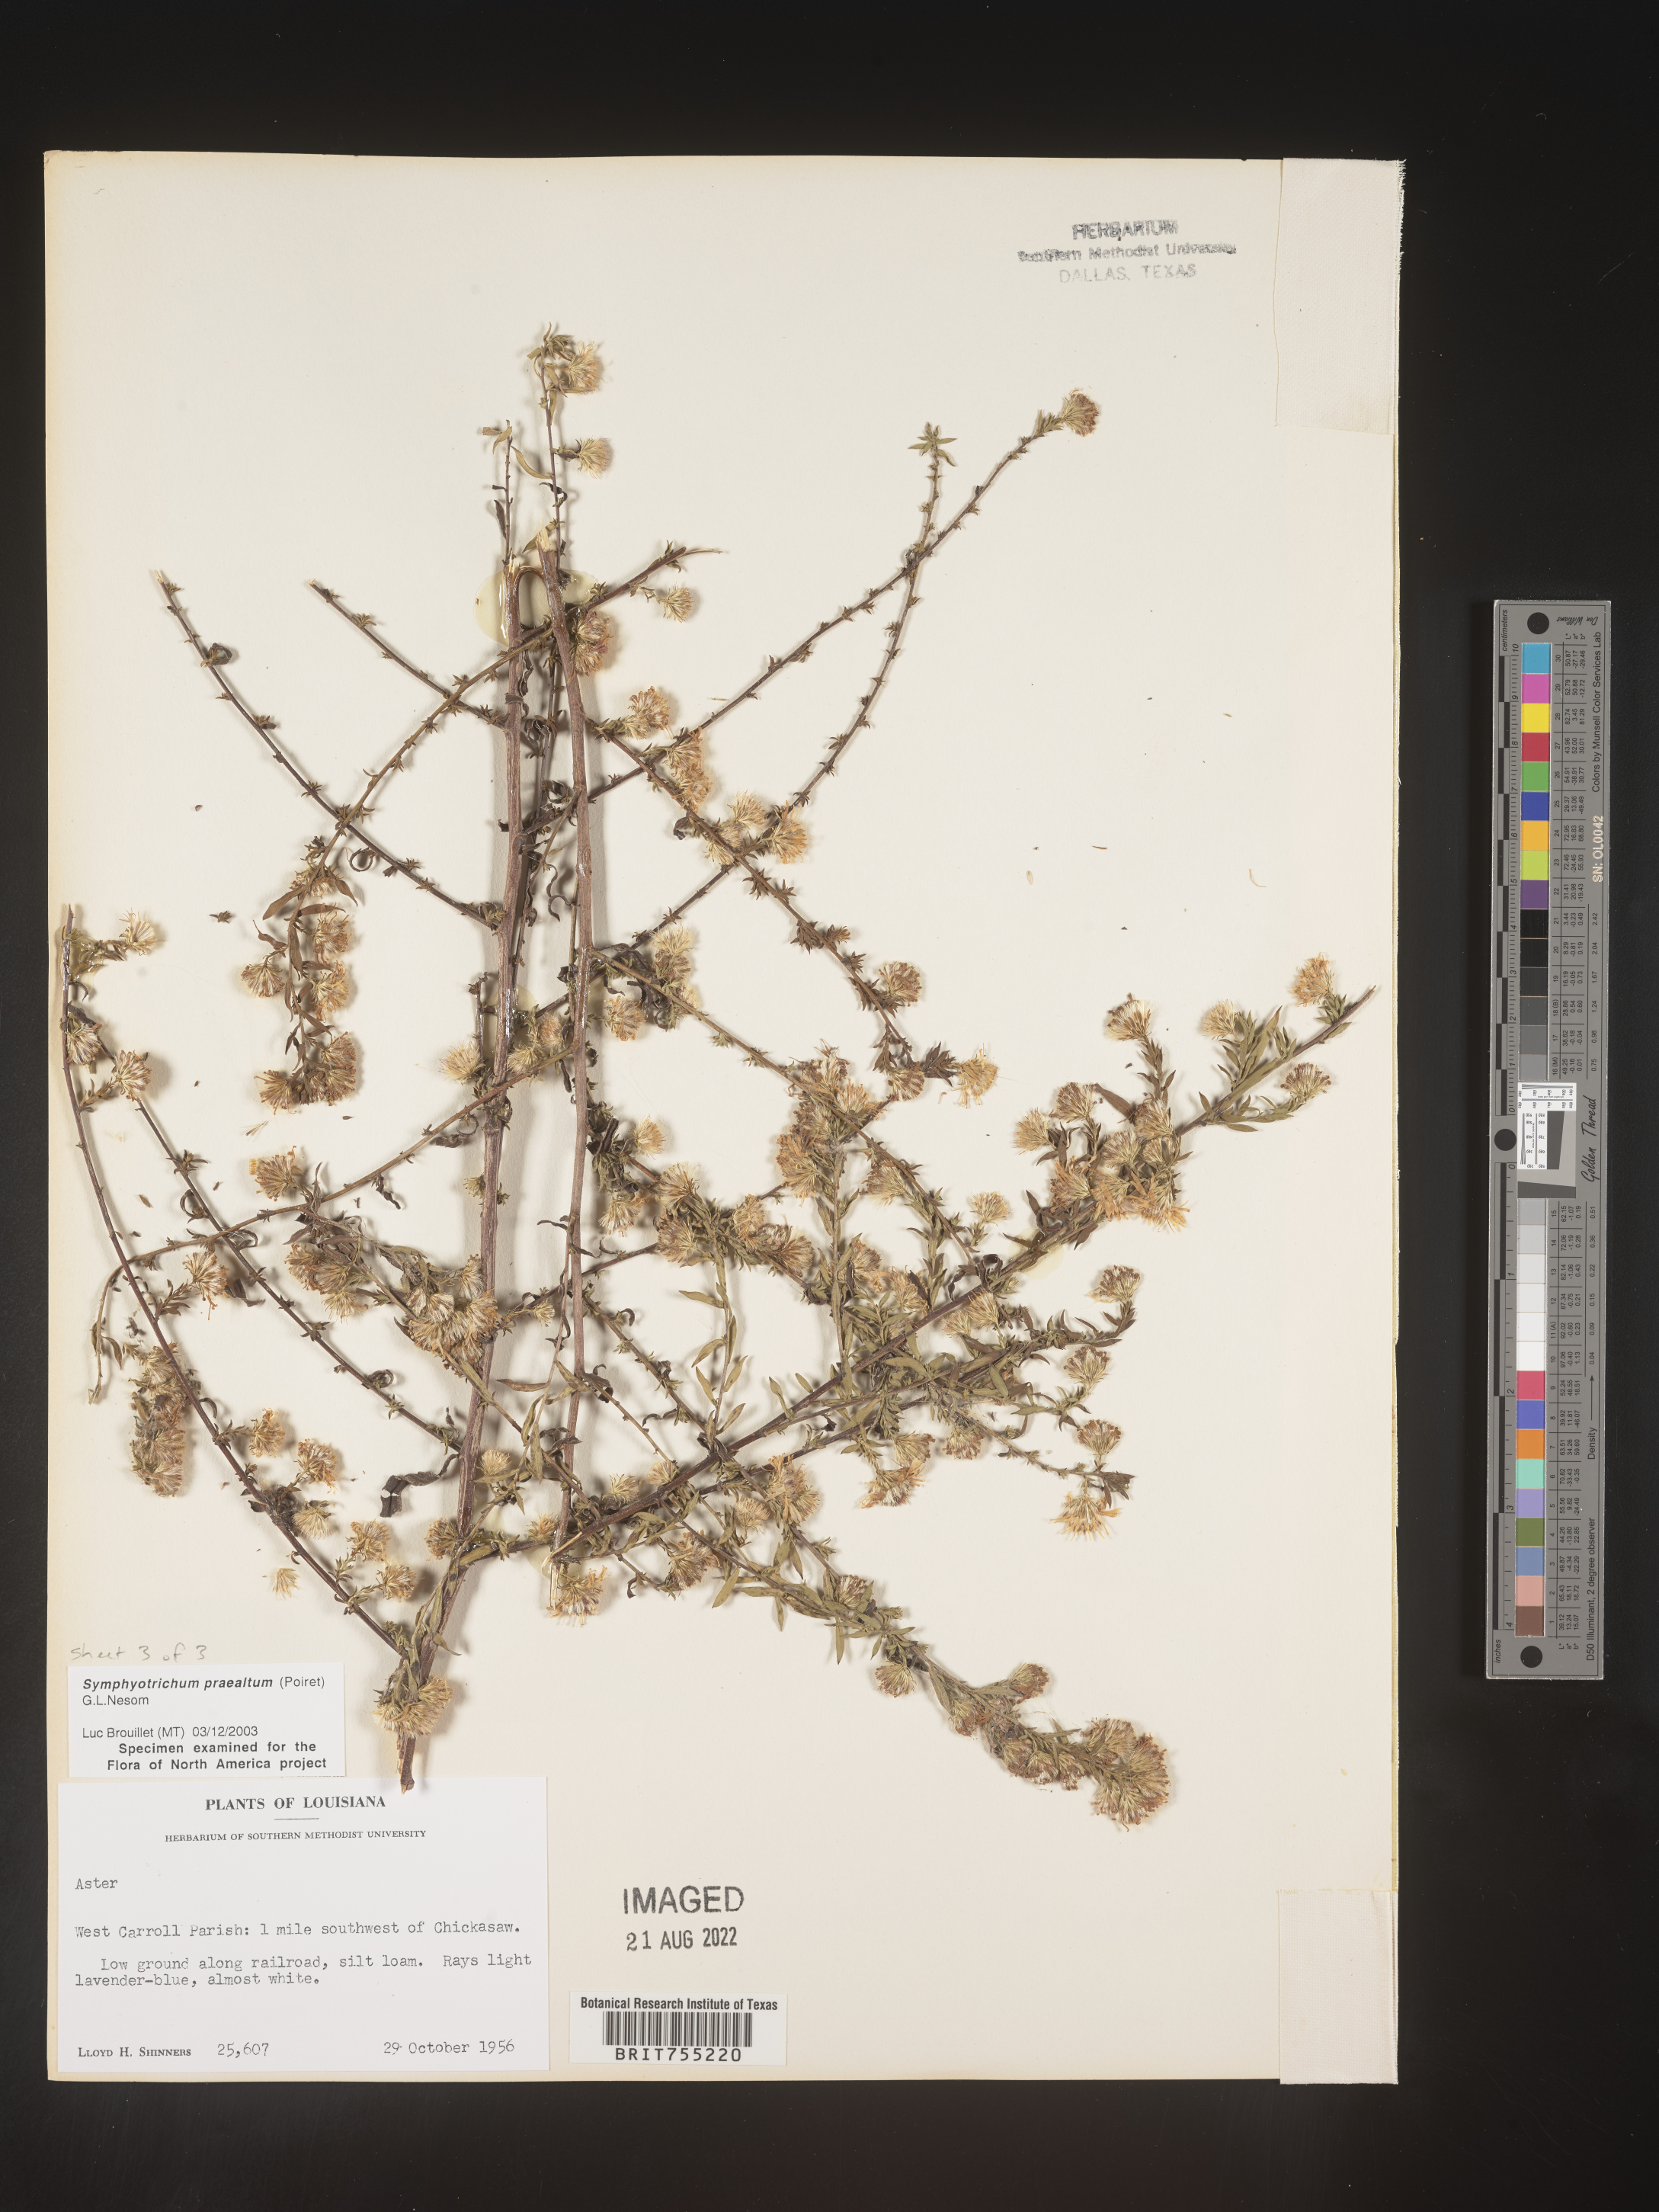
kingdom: Plantae
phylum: Tracheophyta
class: Magnoliopsida
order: Asterales
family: Asteraceae
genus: Symphyotrichum
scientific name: Symphyotrichum praealtum
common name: Willow aster
